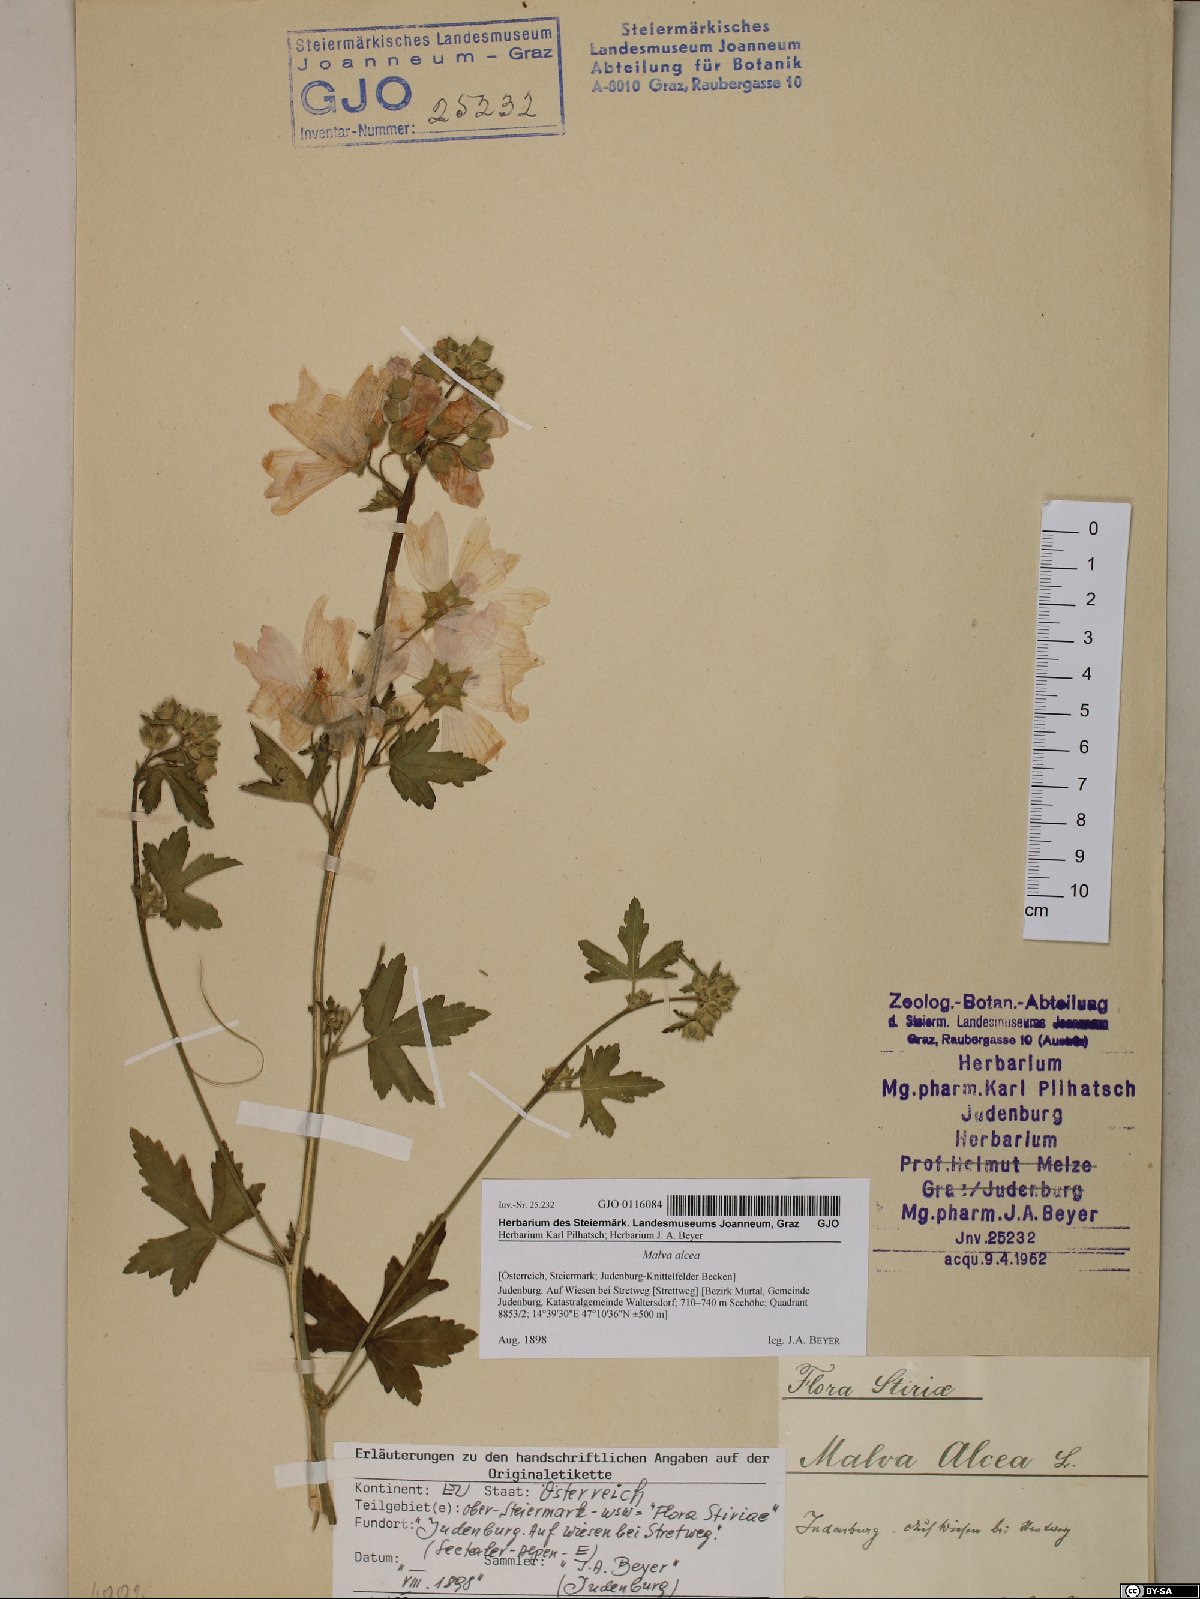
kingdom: Plantae
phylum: Tracheophyta
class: Magnoliopsida
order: Malvales
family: Malvaceae
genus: Malva
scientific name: Malva alcea
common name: Greater musk-mallow
